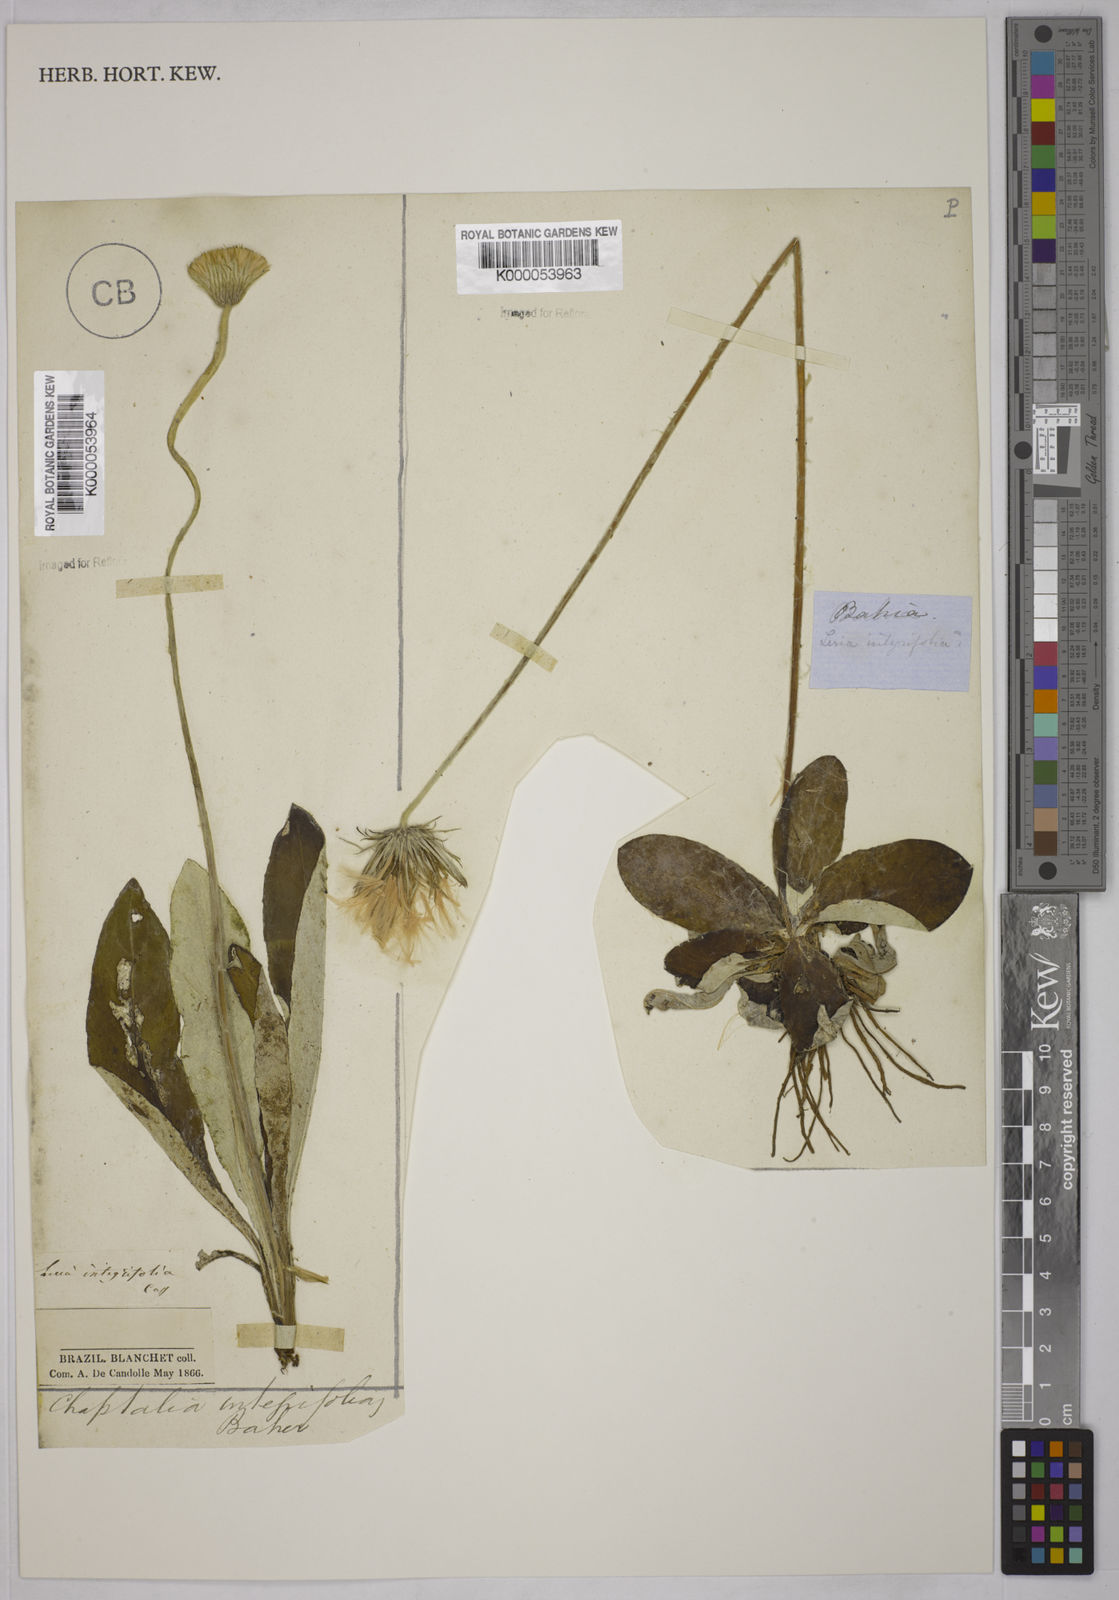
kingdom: Plantae
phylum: Tracheophyta
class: Magnoliopsida
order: Asterales
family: Asteraceae
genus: Chaptalia
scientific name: Chaptalia integerrima
